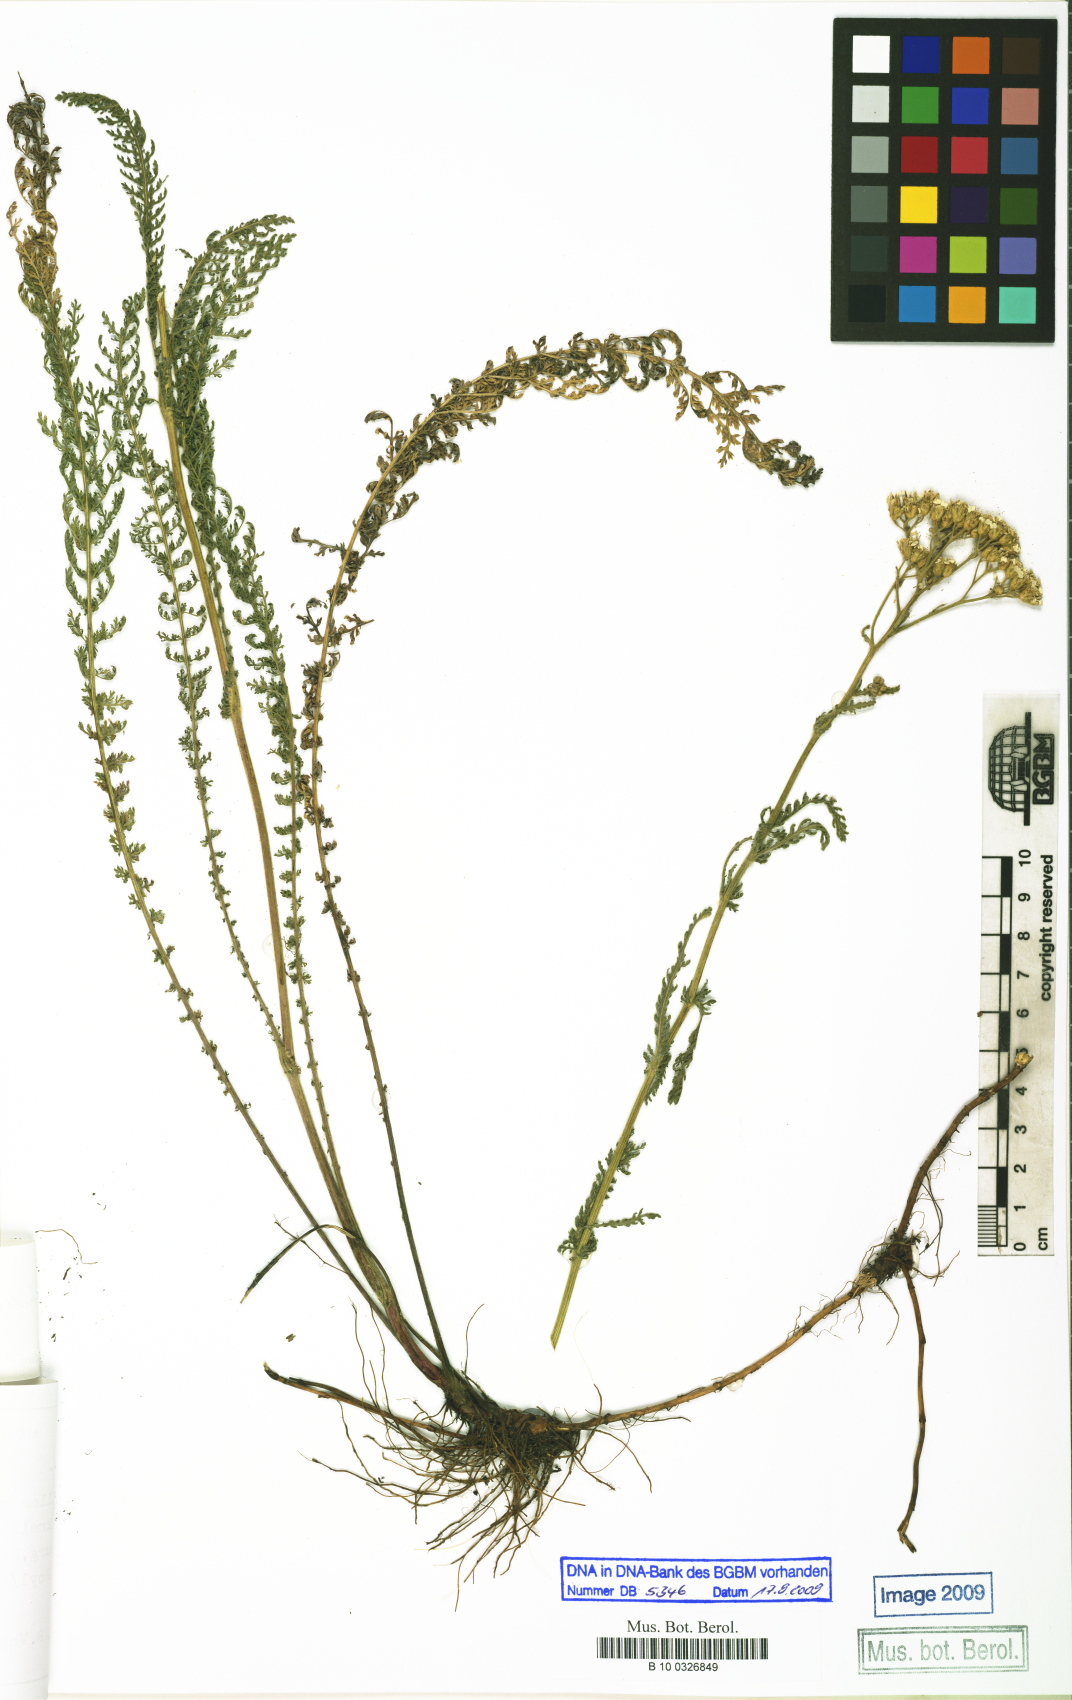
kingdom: Plantae
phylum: Tracheophyta
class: Magnoliopsida
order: Asterales
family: Asteraceae
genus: Achillea
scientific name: Achillea millefolium
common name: Yarrow
